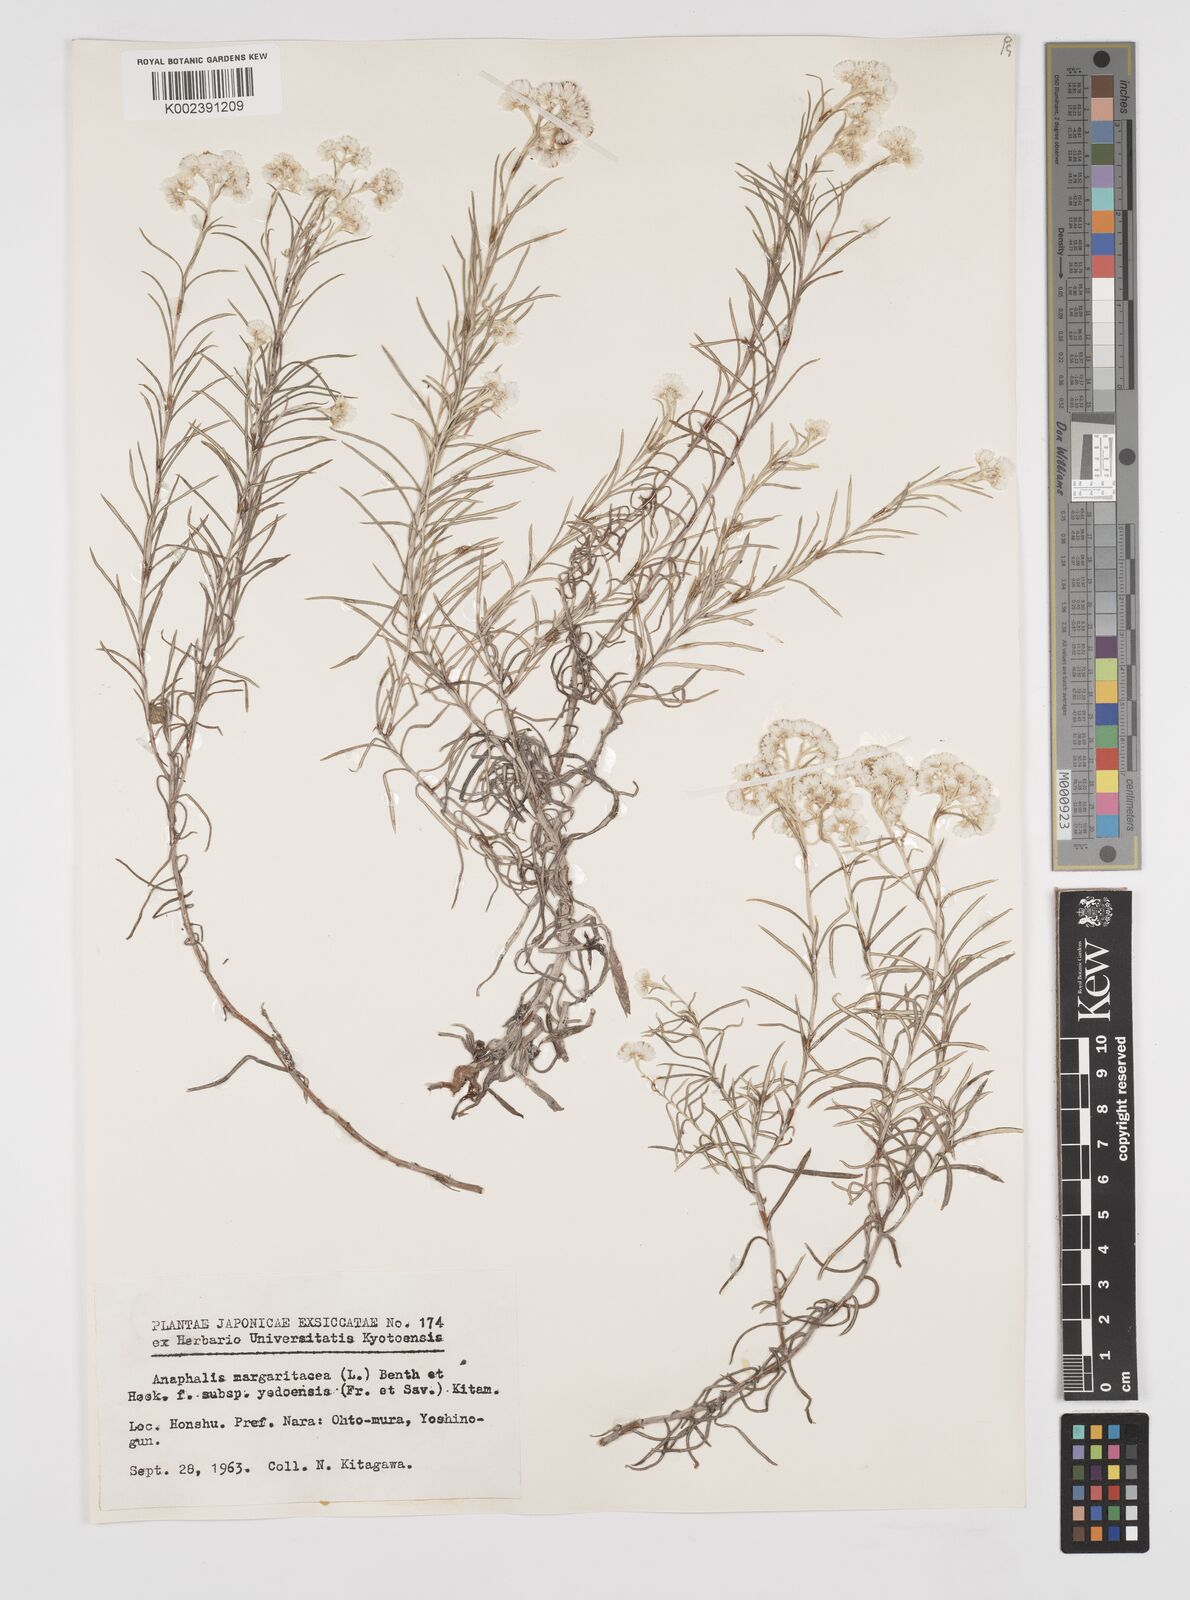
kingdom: Plantae
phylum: Tracheophyta
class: Magnoliopsida
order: Asterales
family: Asteraceae
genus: Anaphalis
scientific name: Anaphalis margaritacea
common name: Pearly everlasting
